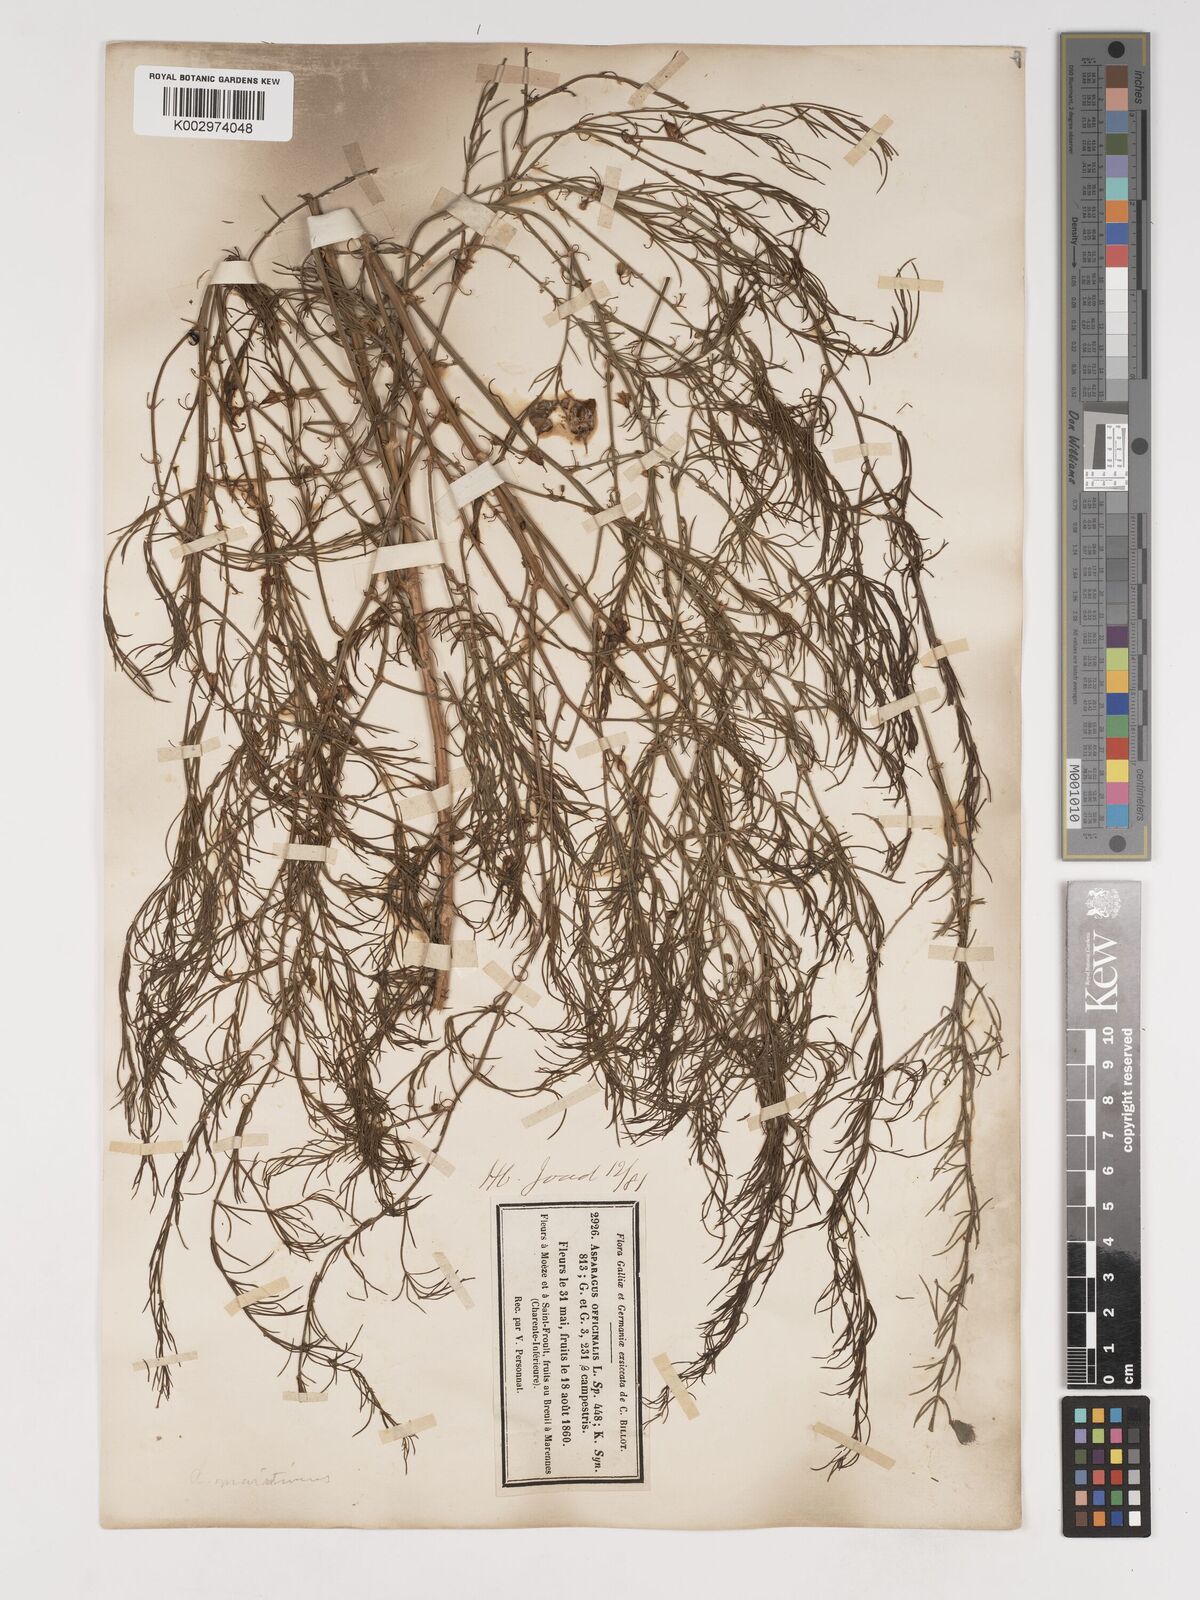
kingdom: Plantae
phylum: Tracheophyta
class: Liliopsida
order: Asparagales
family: Asparagaceae
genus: Asparagus
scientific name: Asparagus maritimus
